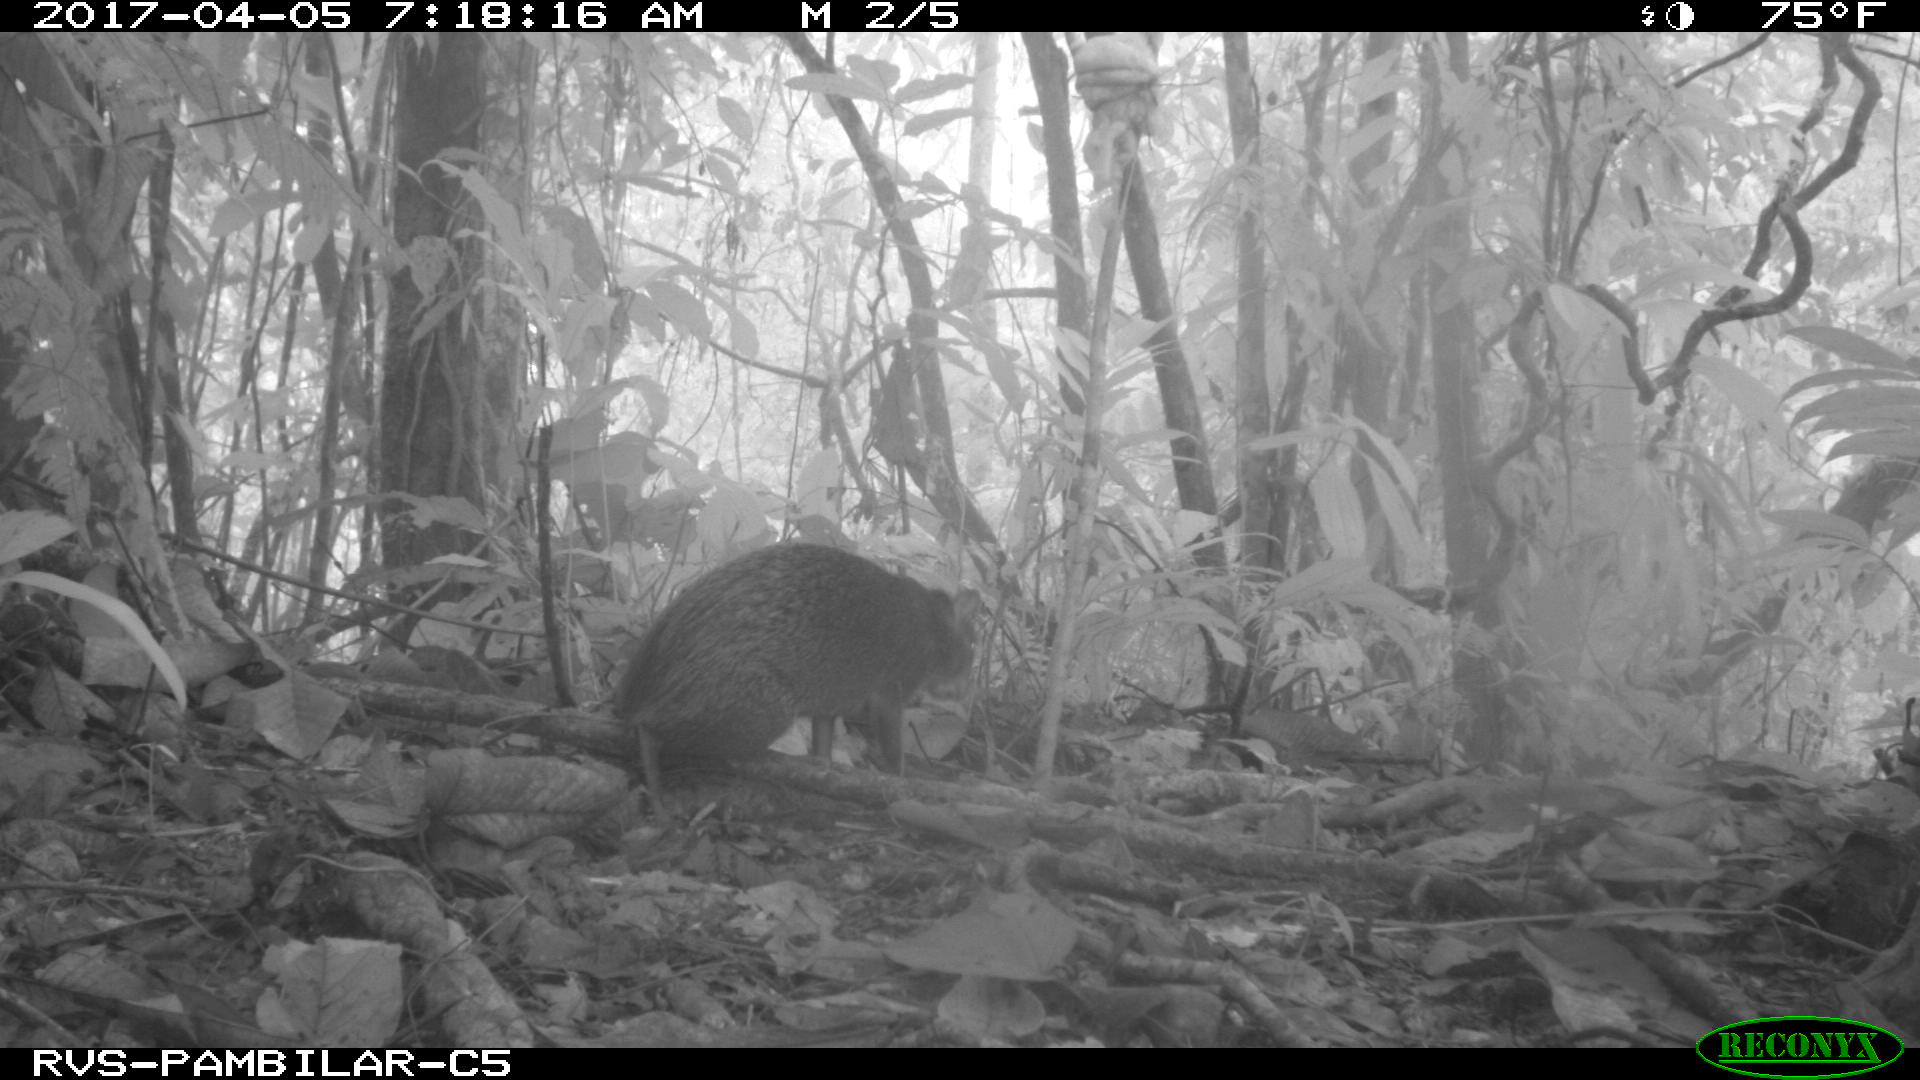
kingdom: Animalia
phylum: Chordata
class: Mammalia
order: Rodentia
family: Dasyproctidae
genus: Dasyprocta
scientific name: Dasyprocta punctata
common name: Central american agouti
